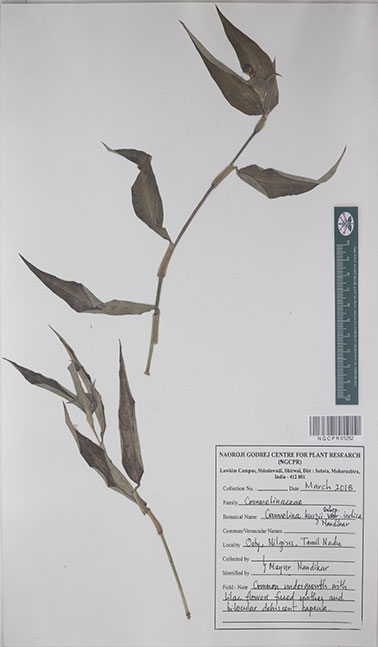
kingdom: Plantae
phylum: Tracheophyta
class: Liliopsida
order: Commelinales
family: Commelinaceae
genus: Commelina
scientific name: Commelina undulata
